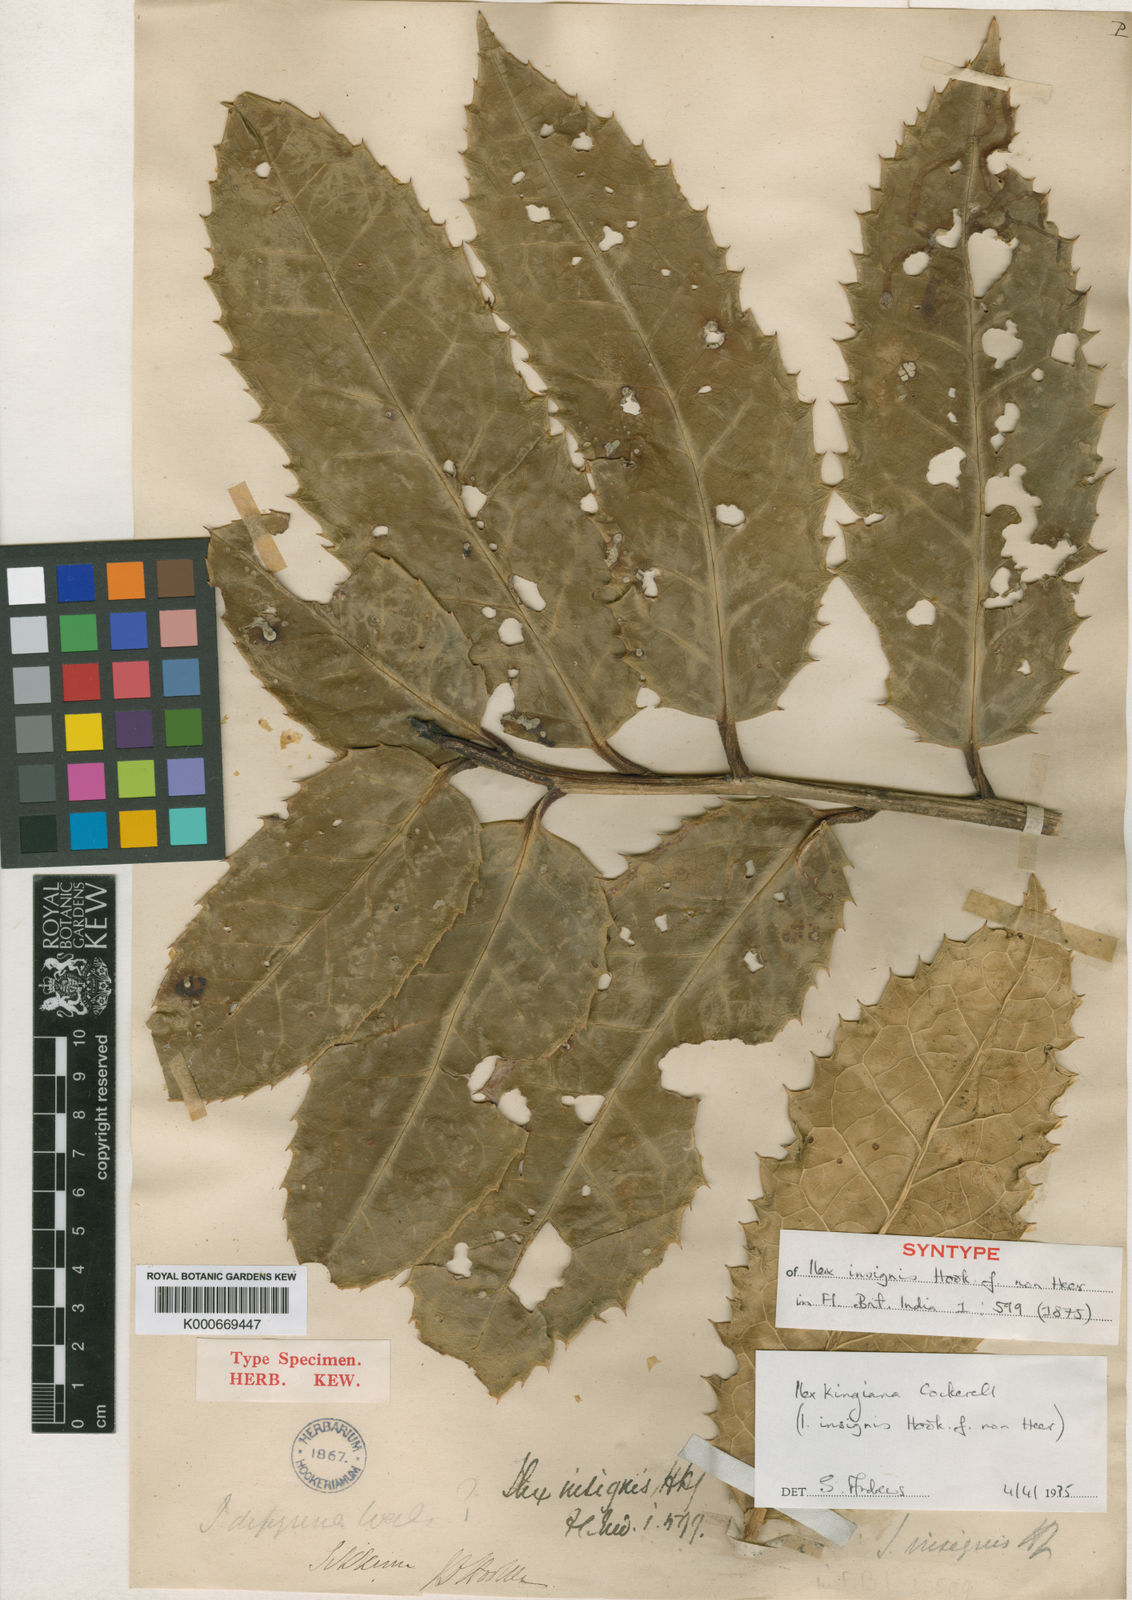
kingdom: Plantae
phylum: Tracheophyta
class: Magnoliopsida
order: Aquifoliales
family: Aquifoliaceae
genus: Ilex
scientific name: Ilex kingiana
